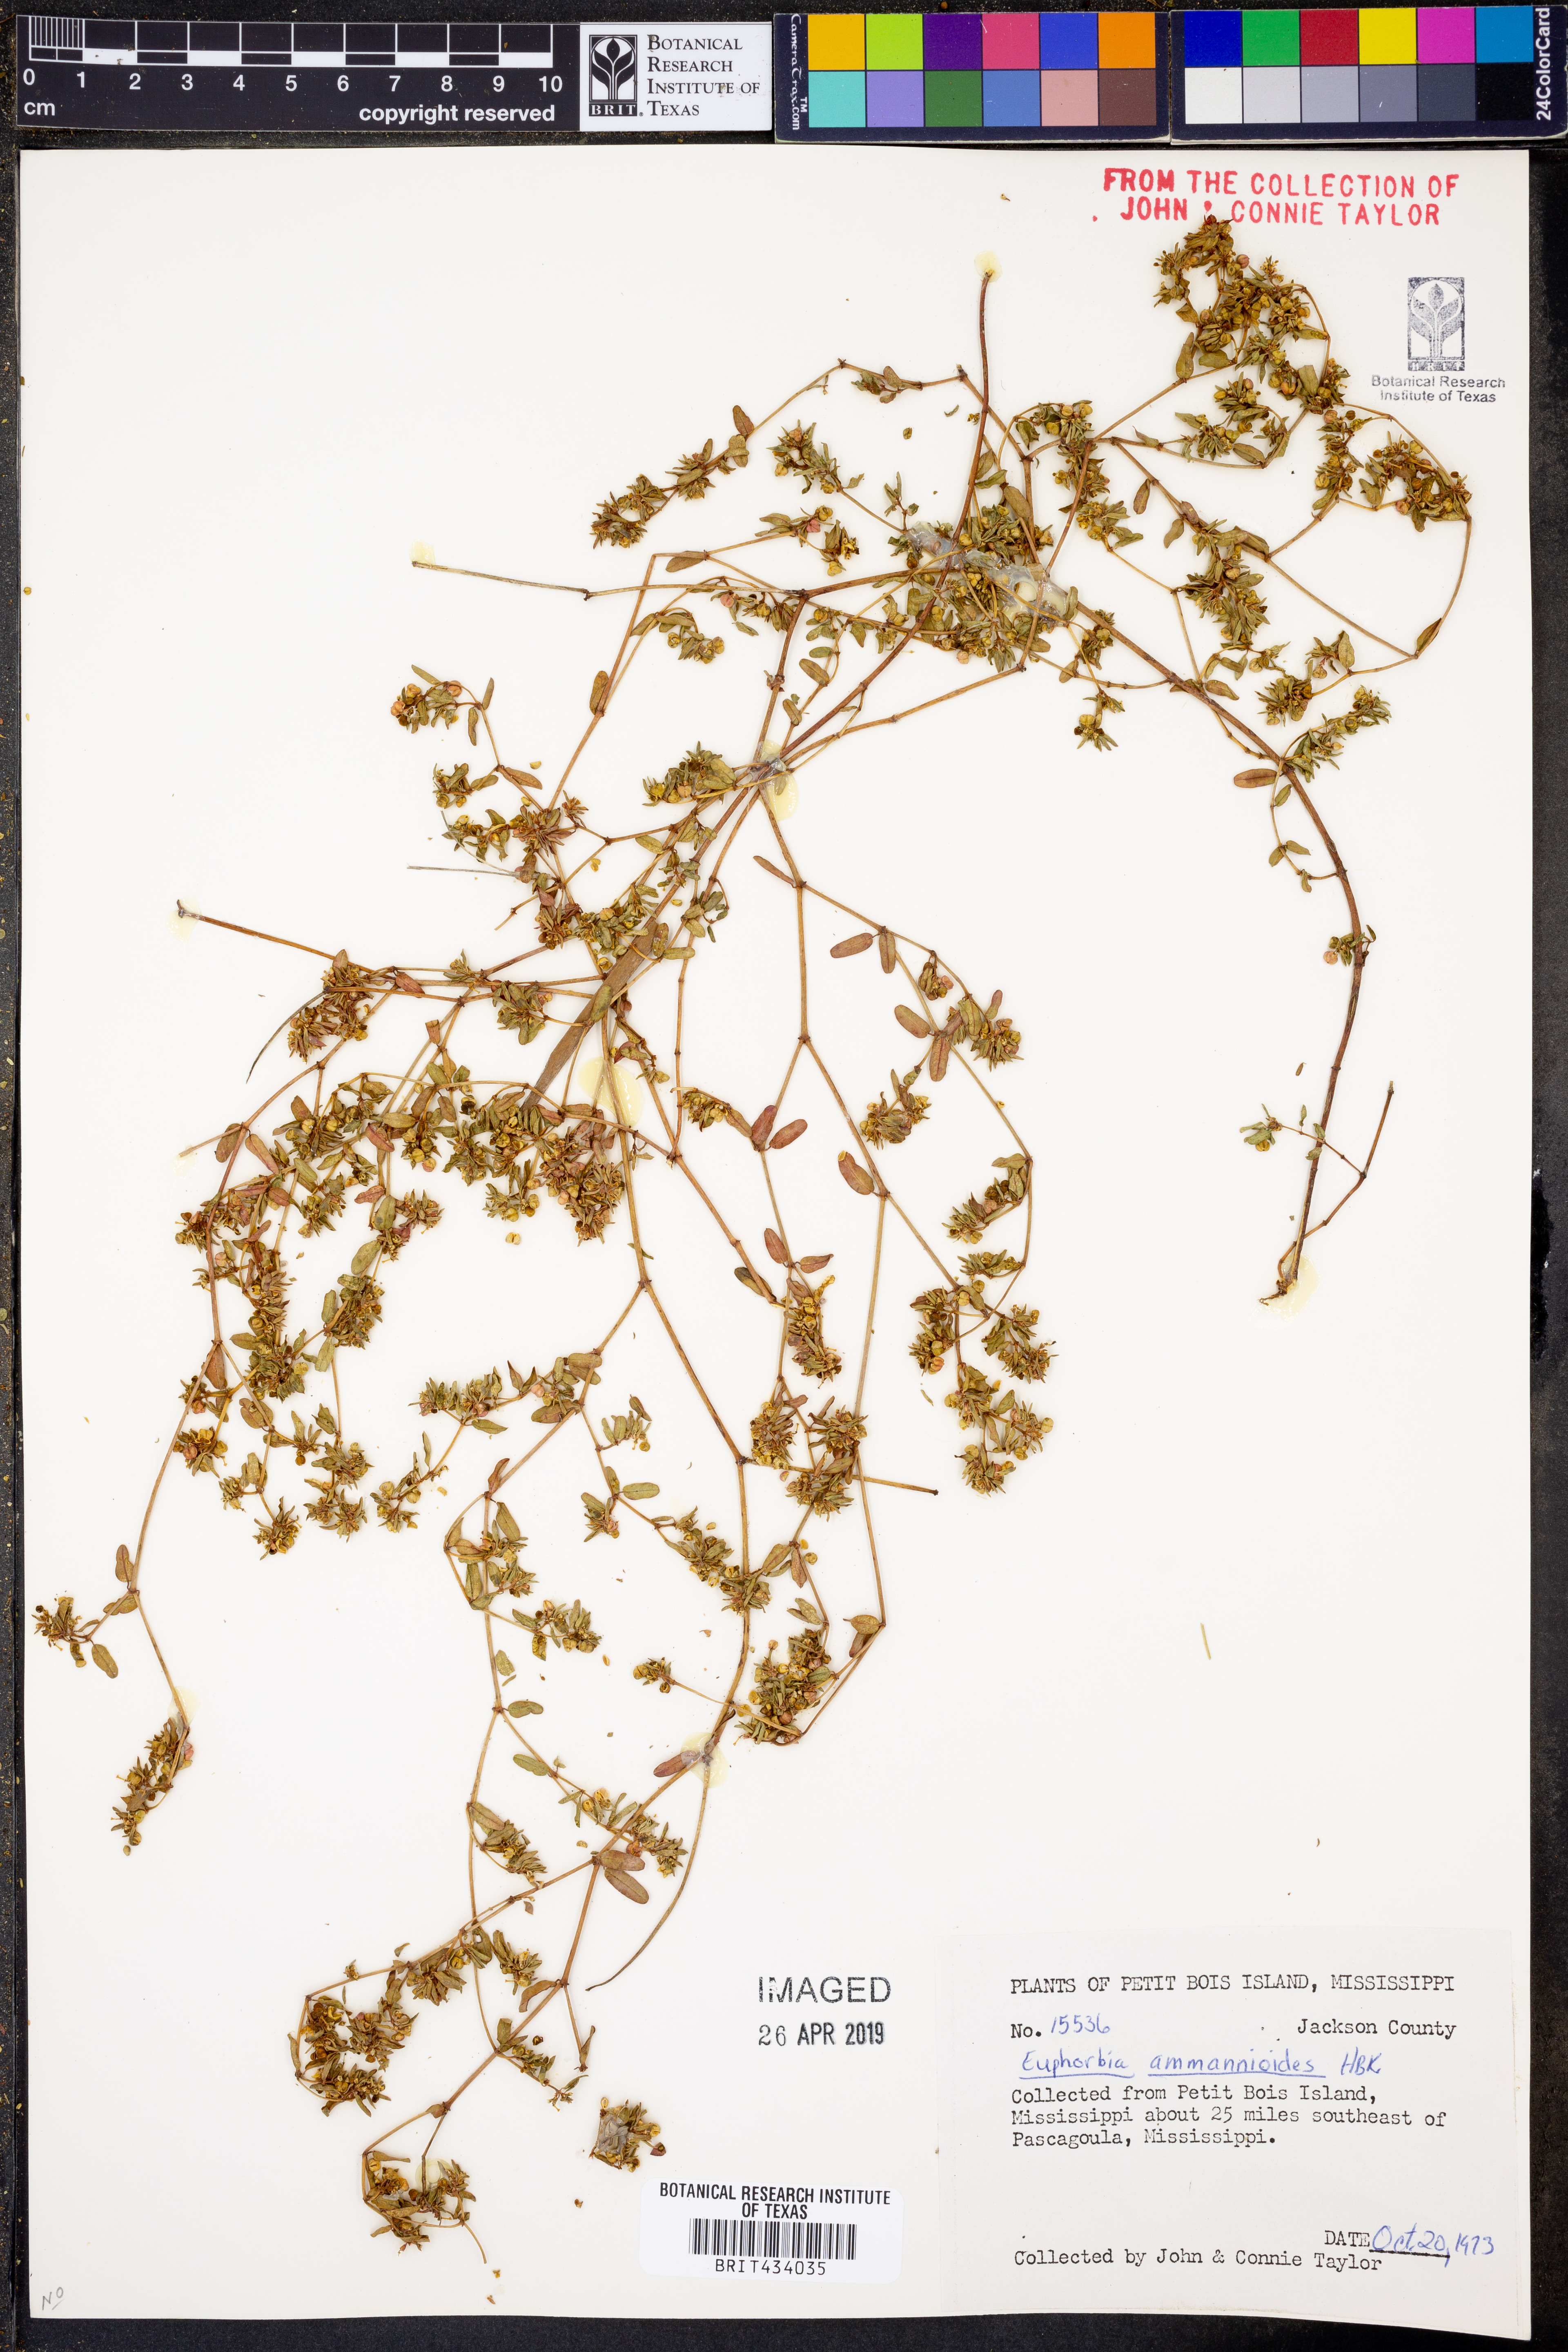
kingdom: Plantae
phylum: Tracheophyta
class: Magnoliopsida
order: Malpighiales
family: Euphorbiaceae
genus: Euphorbia
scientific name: Euphorbia bombensis
